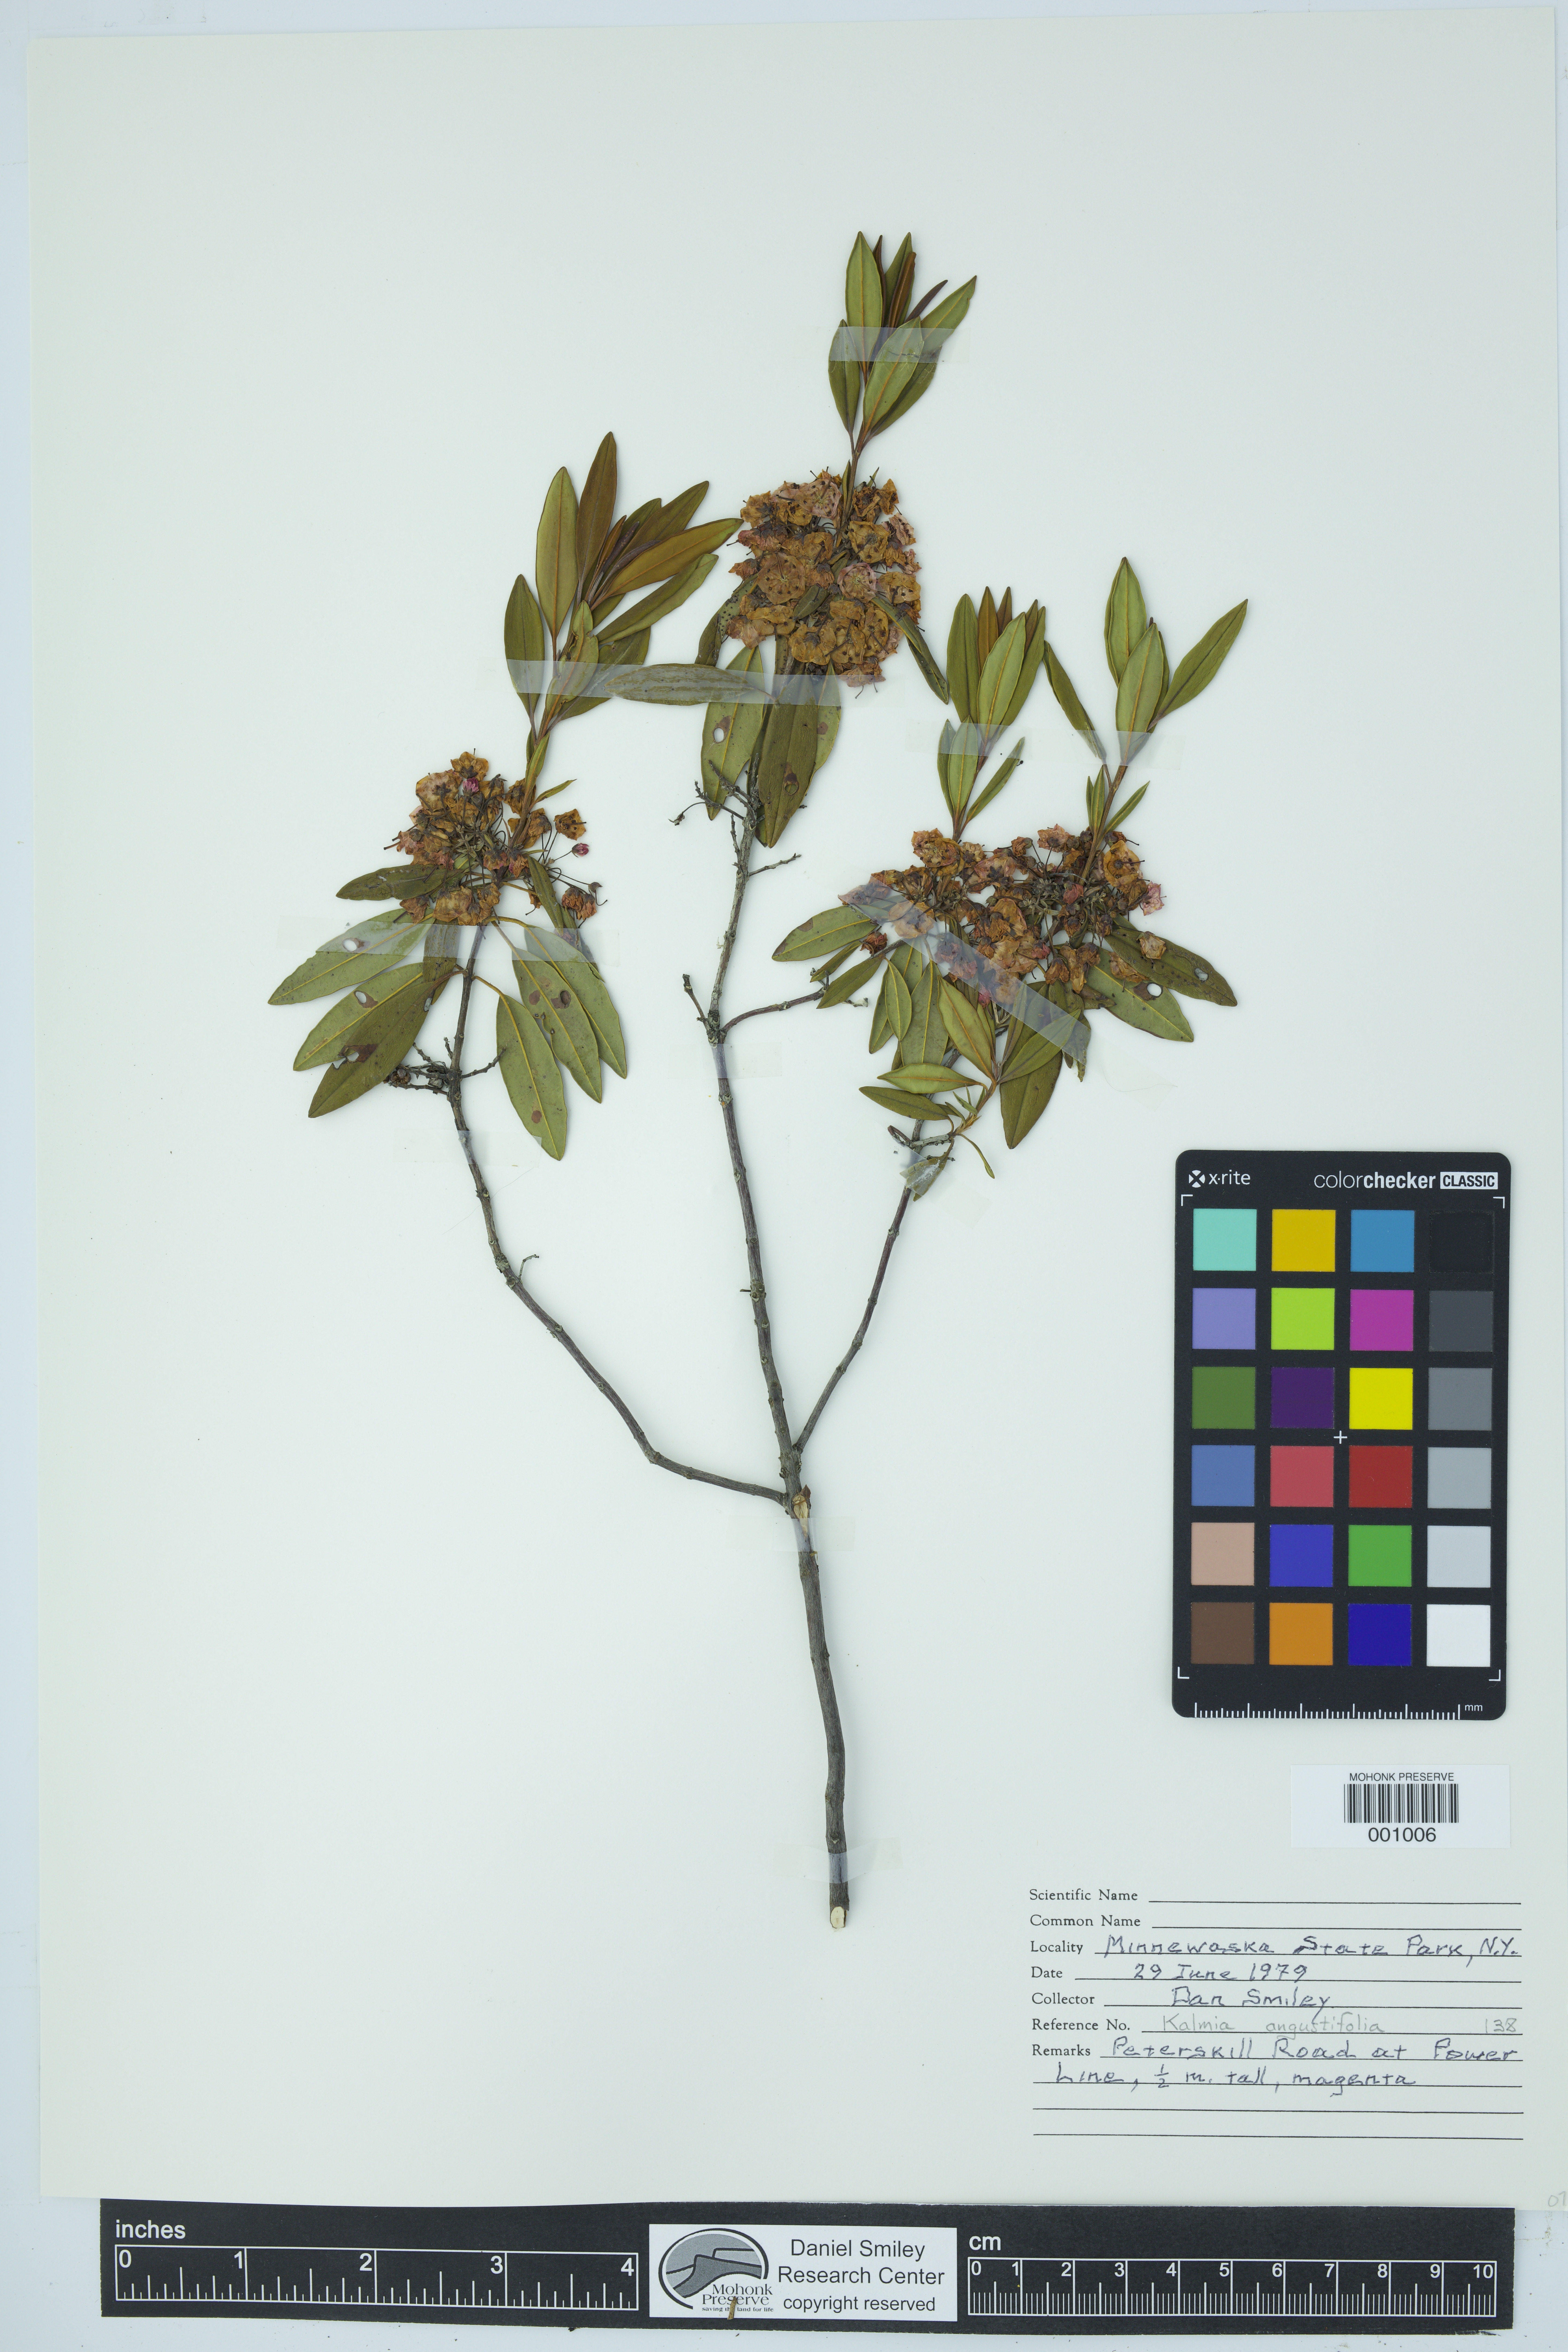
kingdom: Plantae
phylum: Tracheophyta
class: Magnoliopsida
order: Ericales
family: Ericaceae
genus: Kalmia
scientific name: Kalmia angustifolia
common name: Sheep-laurel
